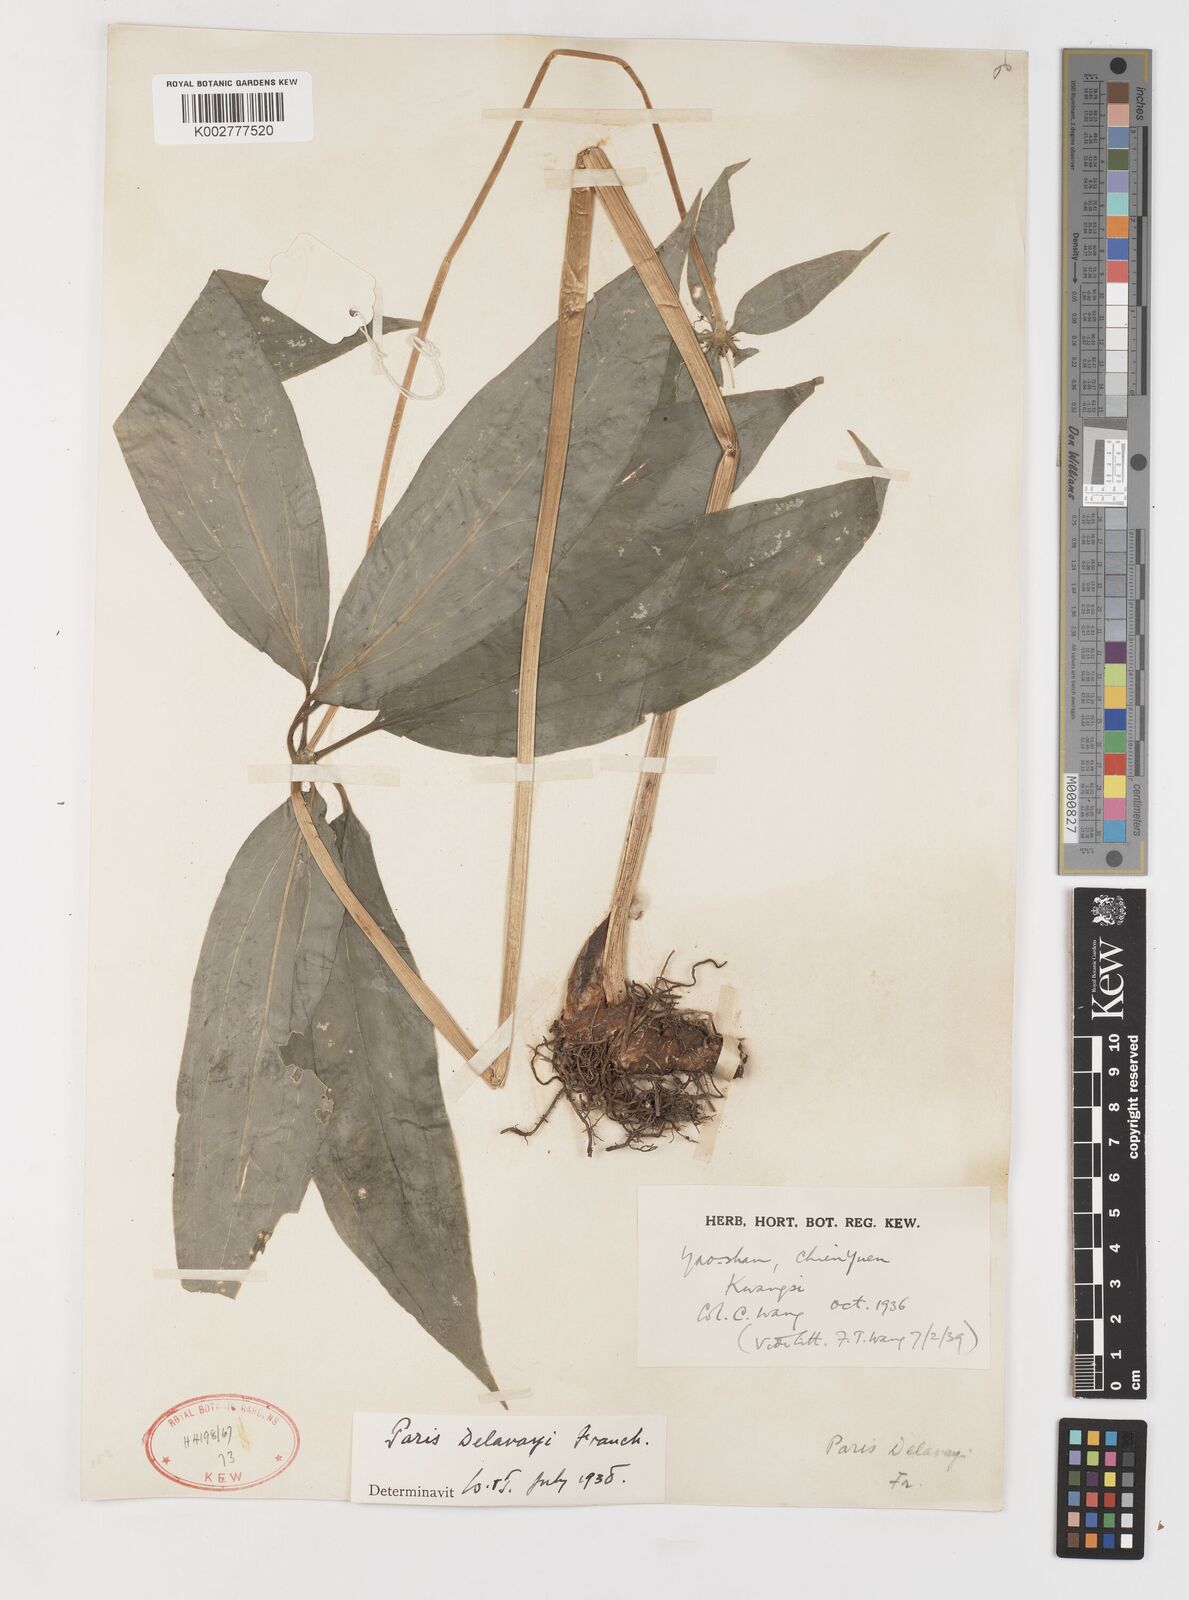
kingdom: Plantae
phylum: Tracheophyta
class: Liliopsida
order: Liliales
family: Melanthiaceae
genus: Paris
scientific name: Paris delavayi
